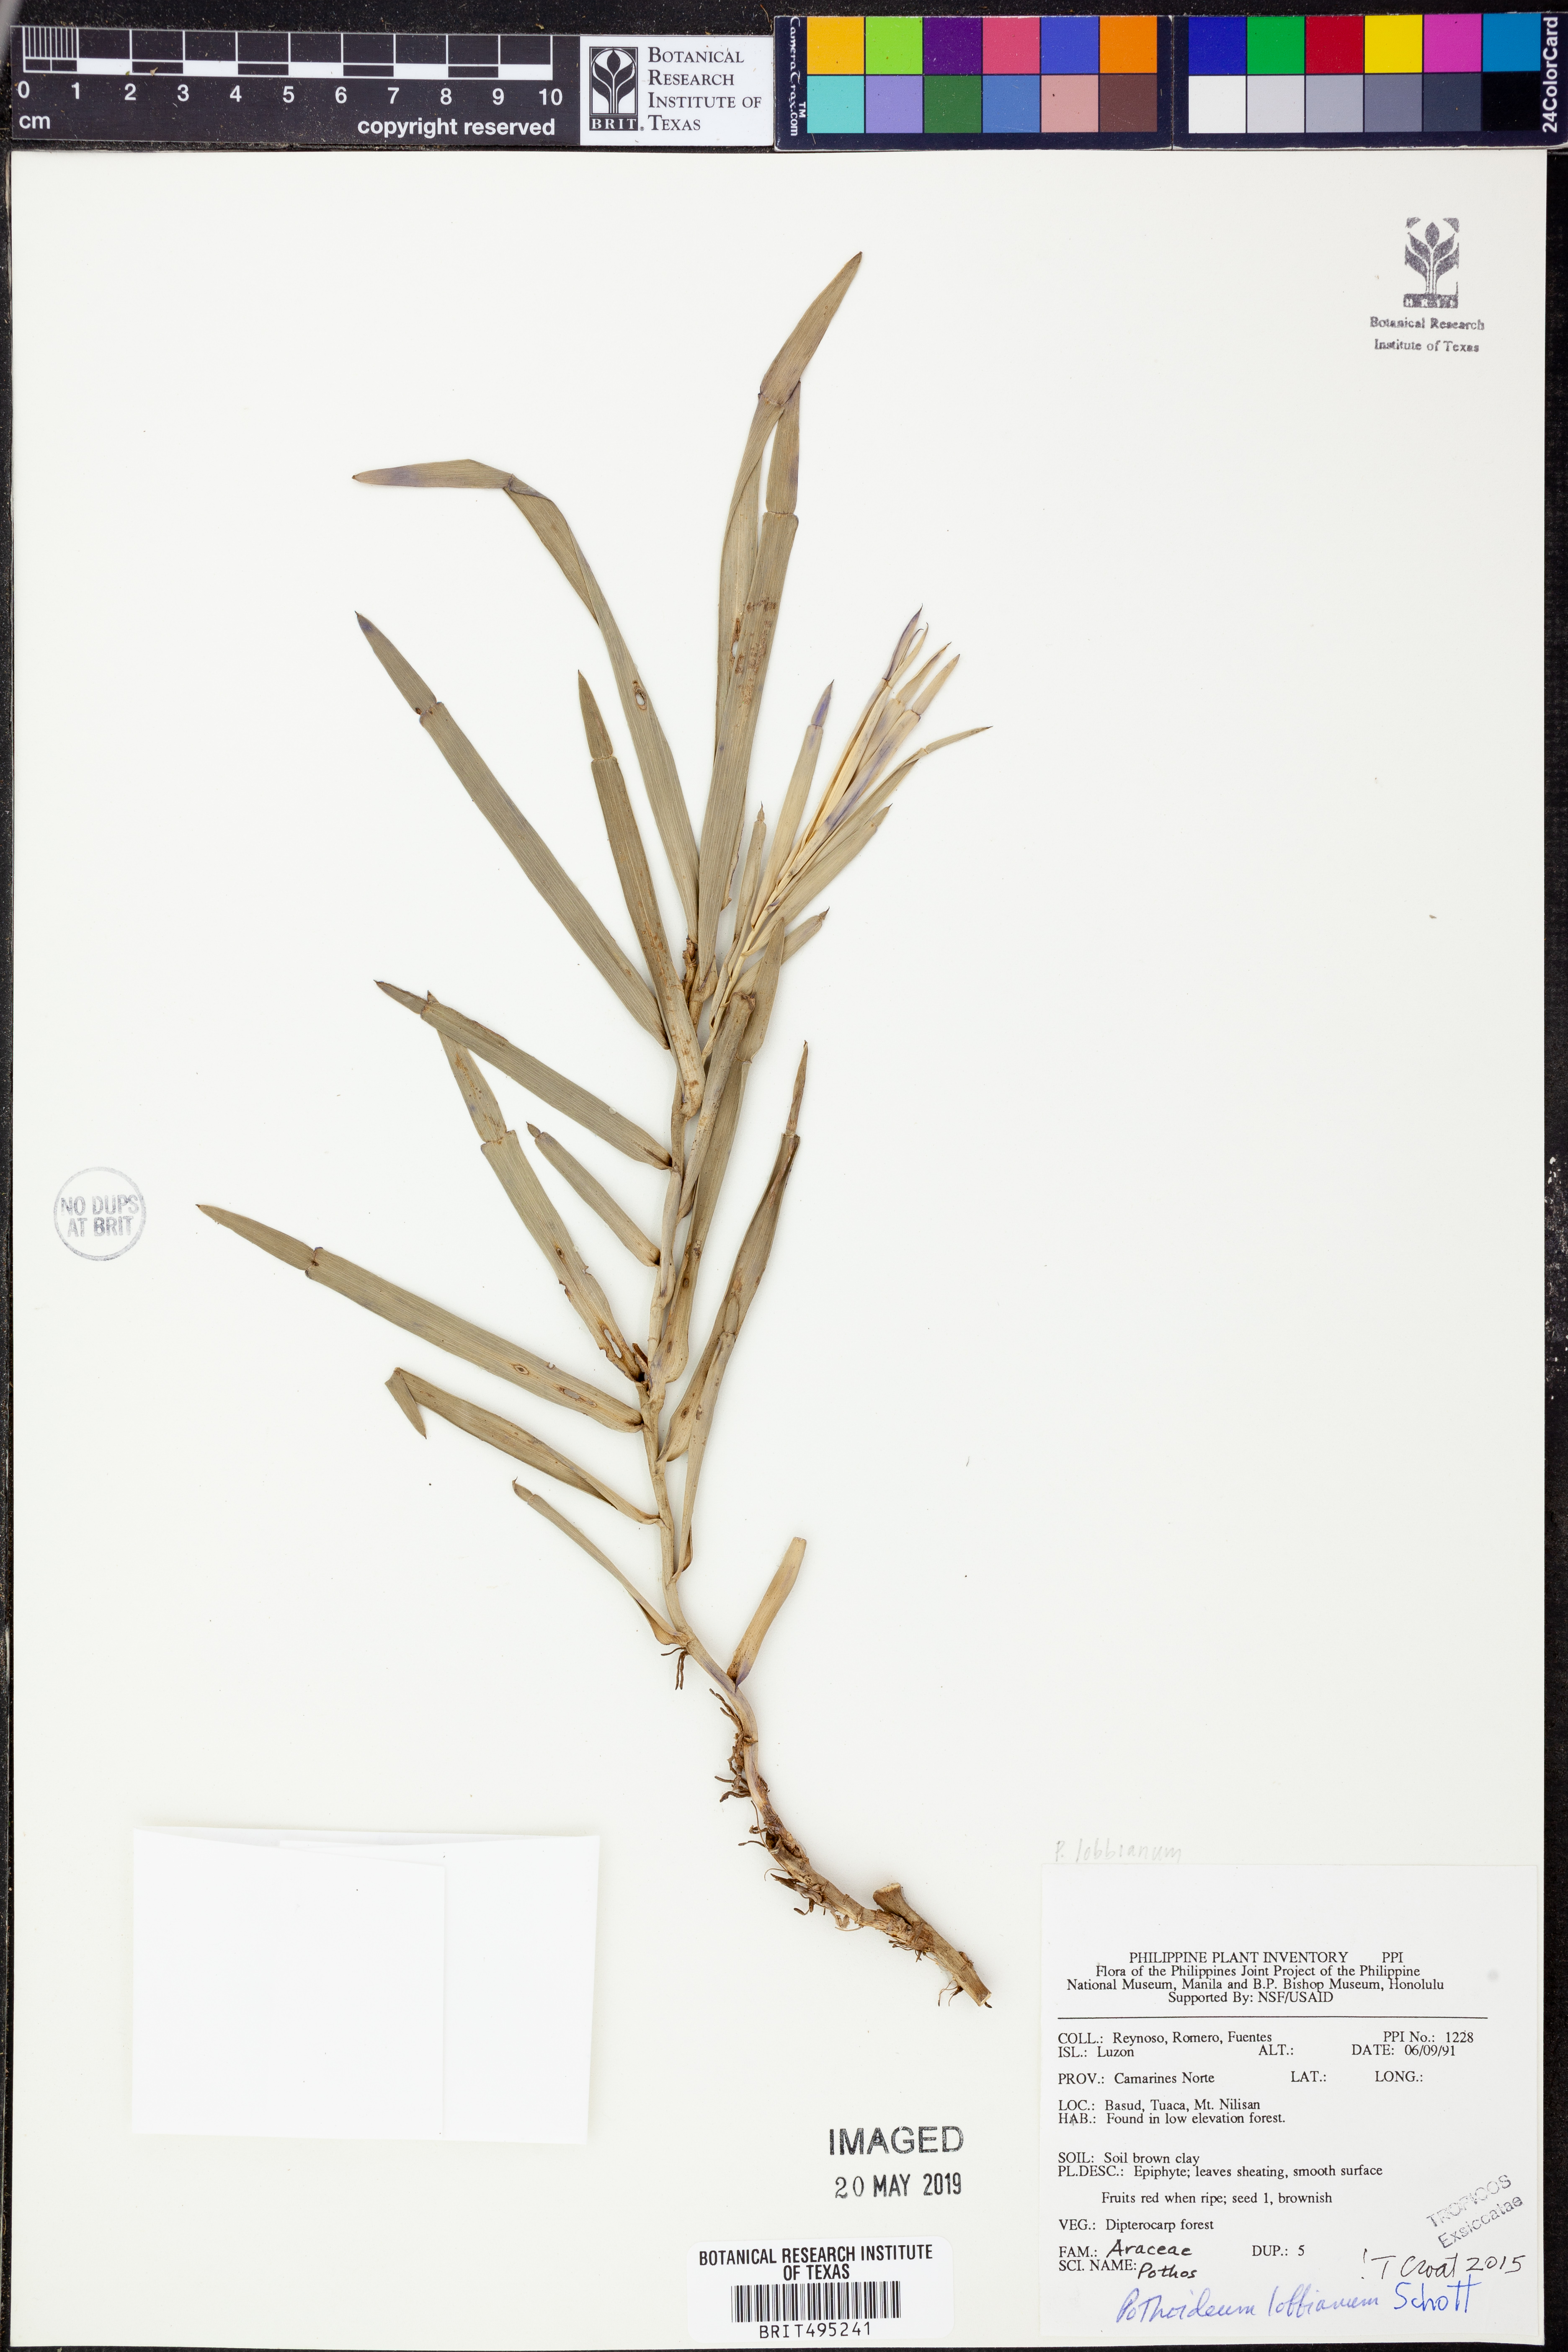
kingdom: Plantae
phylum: Tracheophyta
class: Liliopsida
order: Alismatales
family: Araceae
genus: Pothoidium
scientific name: Pothoidium lobbianum
